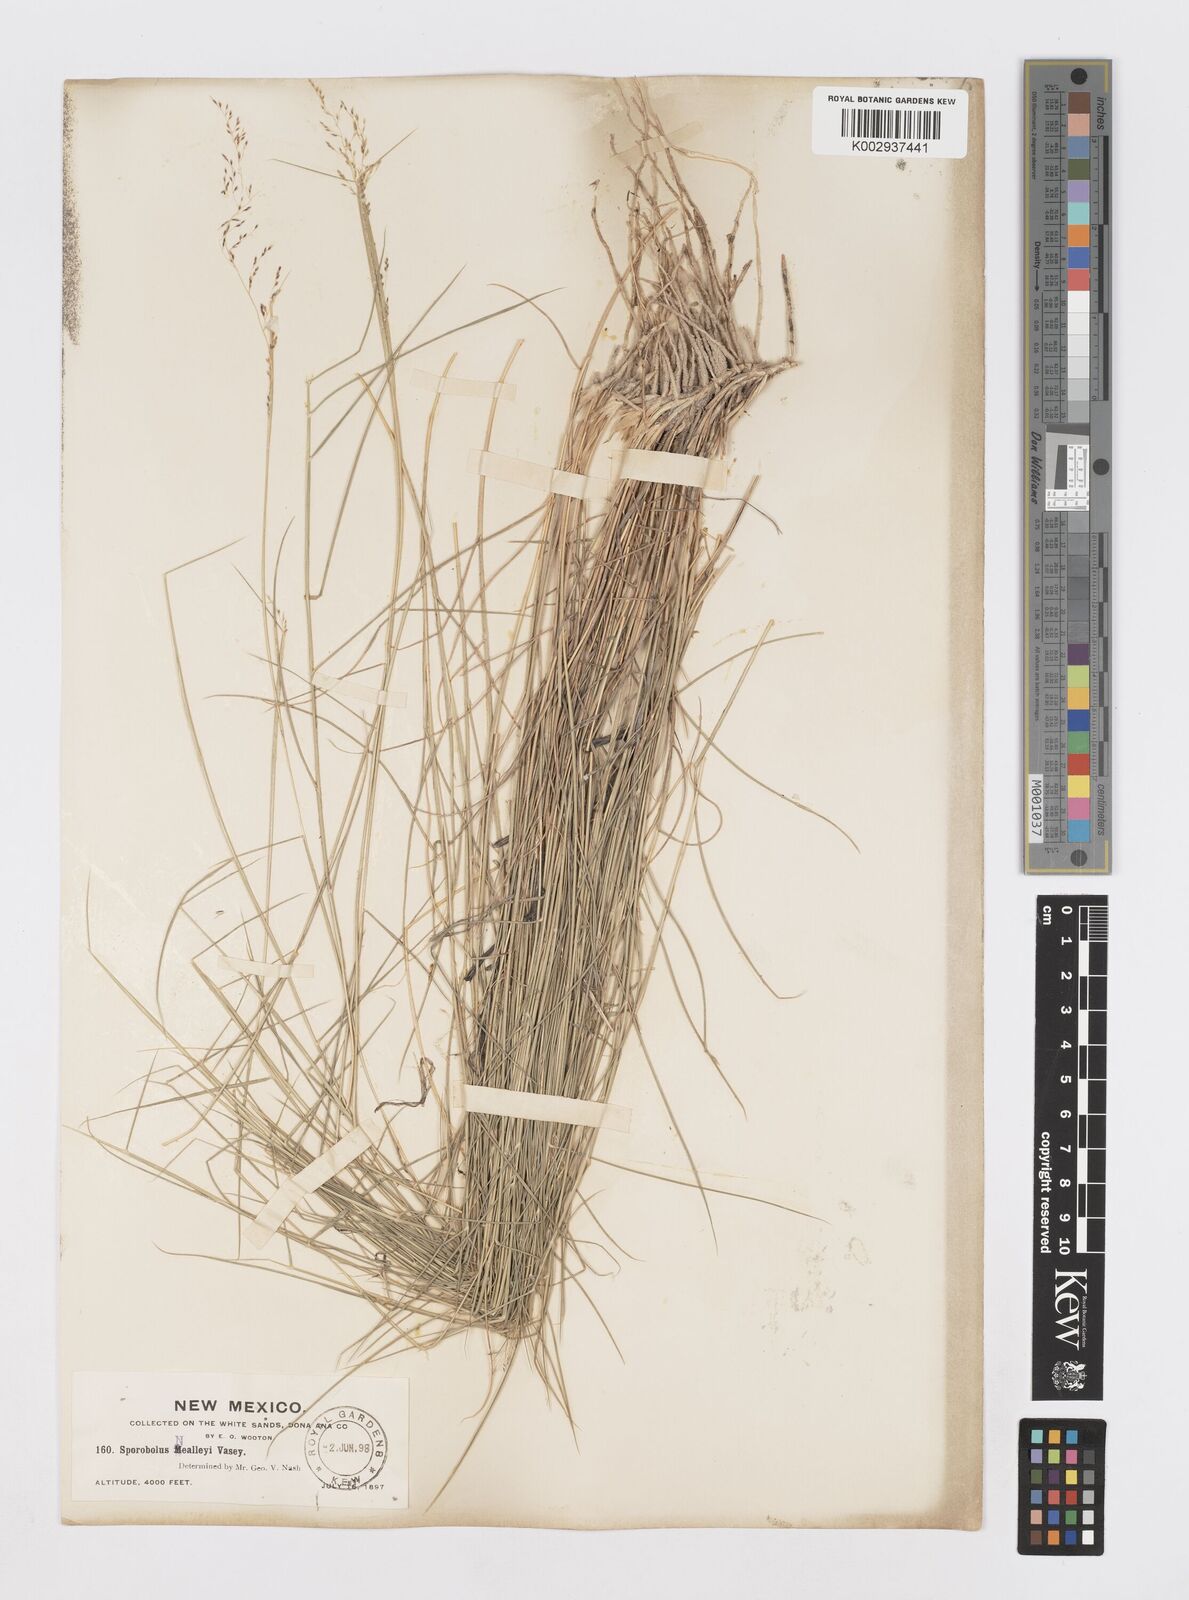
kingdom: Plantae
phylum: Tracheophyta
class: Liliopsida
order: Poales
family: Poaceae
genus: Sporobolus
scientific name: Sporobolus nealleyi
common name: Gyp grass
